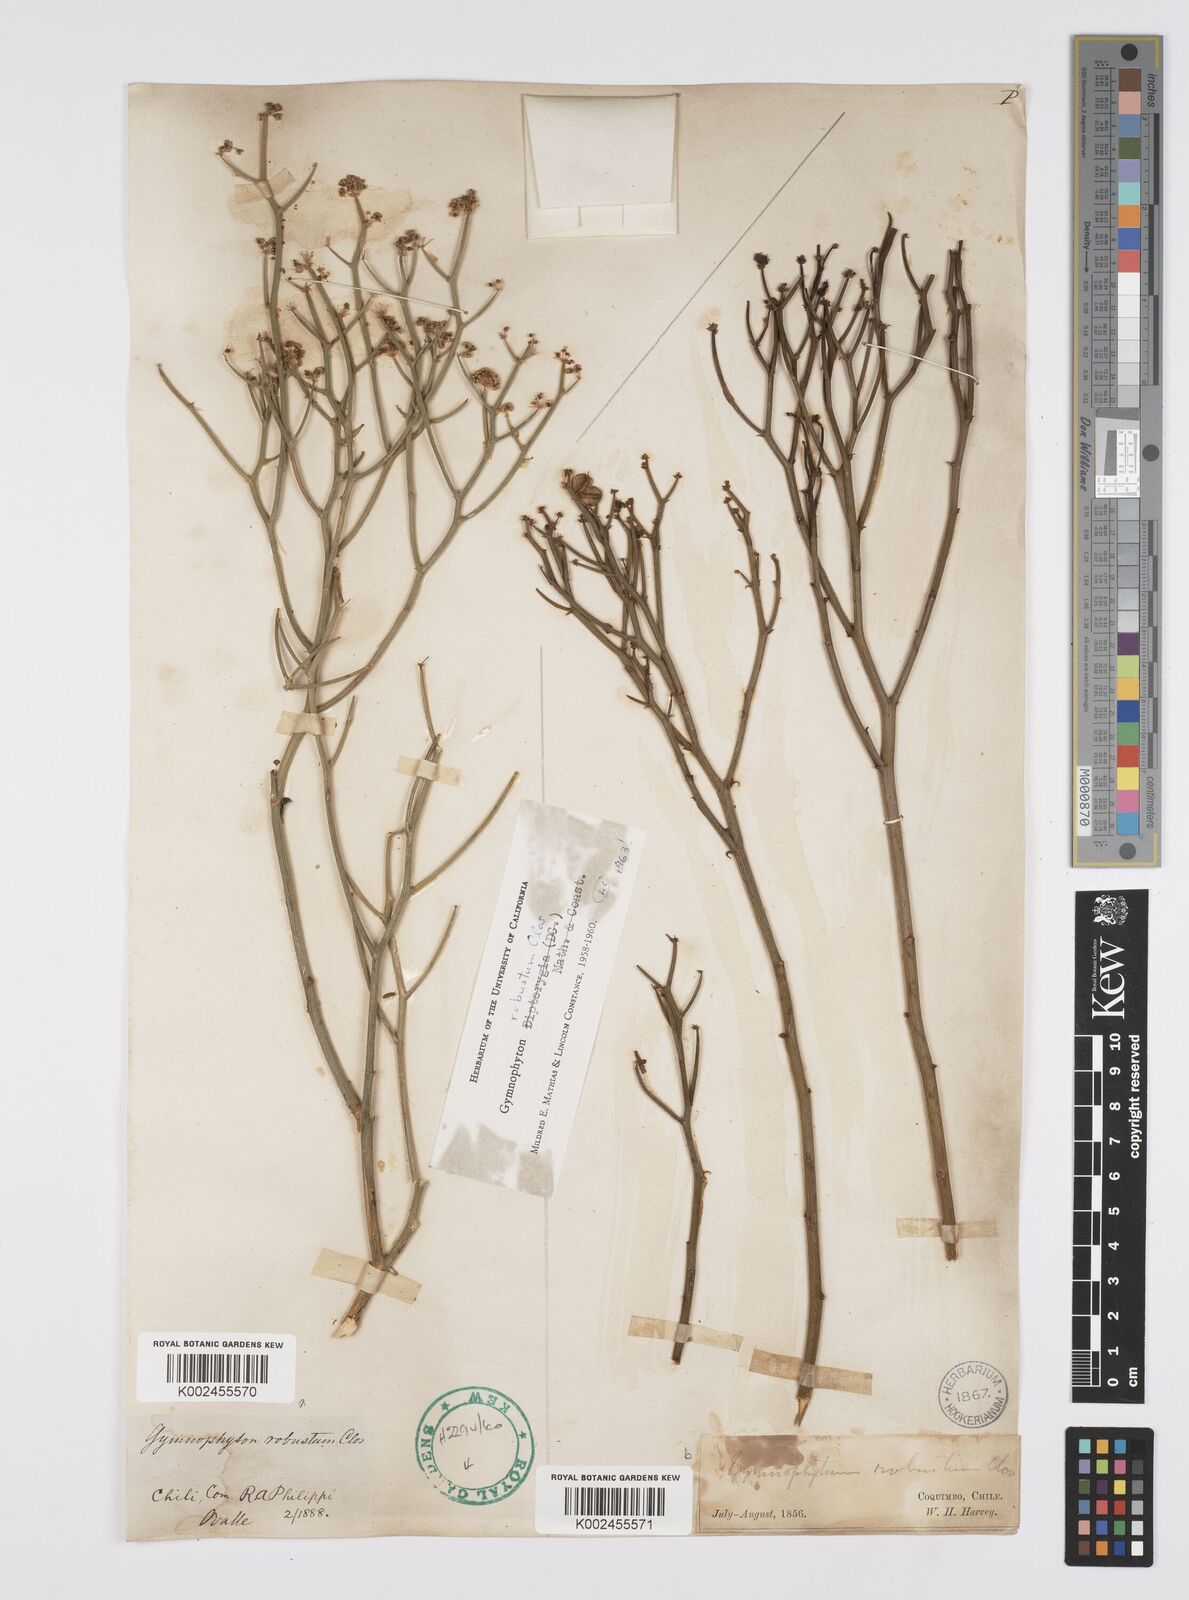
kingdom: Plantae
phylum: Tracheophyta
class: Magnoliopsida
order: Apiales
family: Apiaceae
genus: Gymnophyton
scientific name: Gymnophyton robustum
